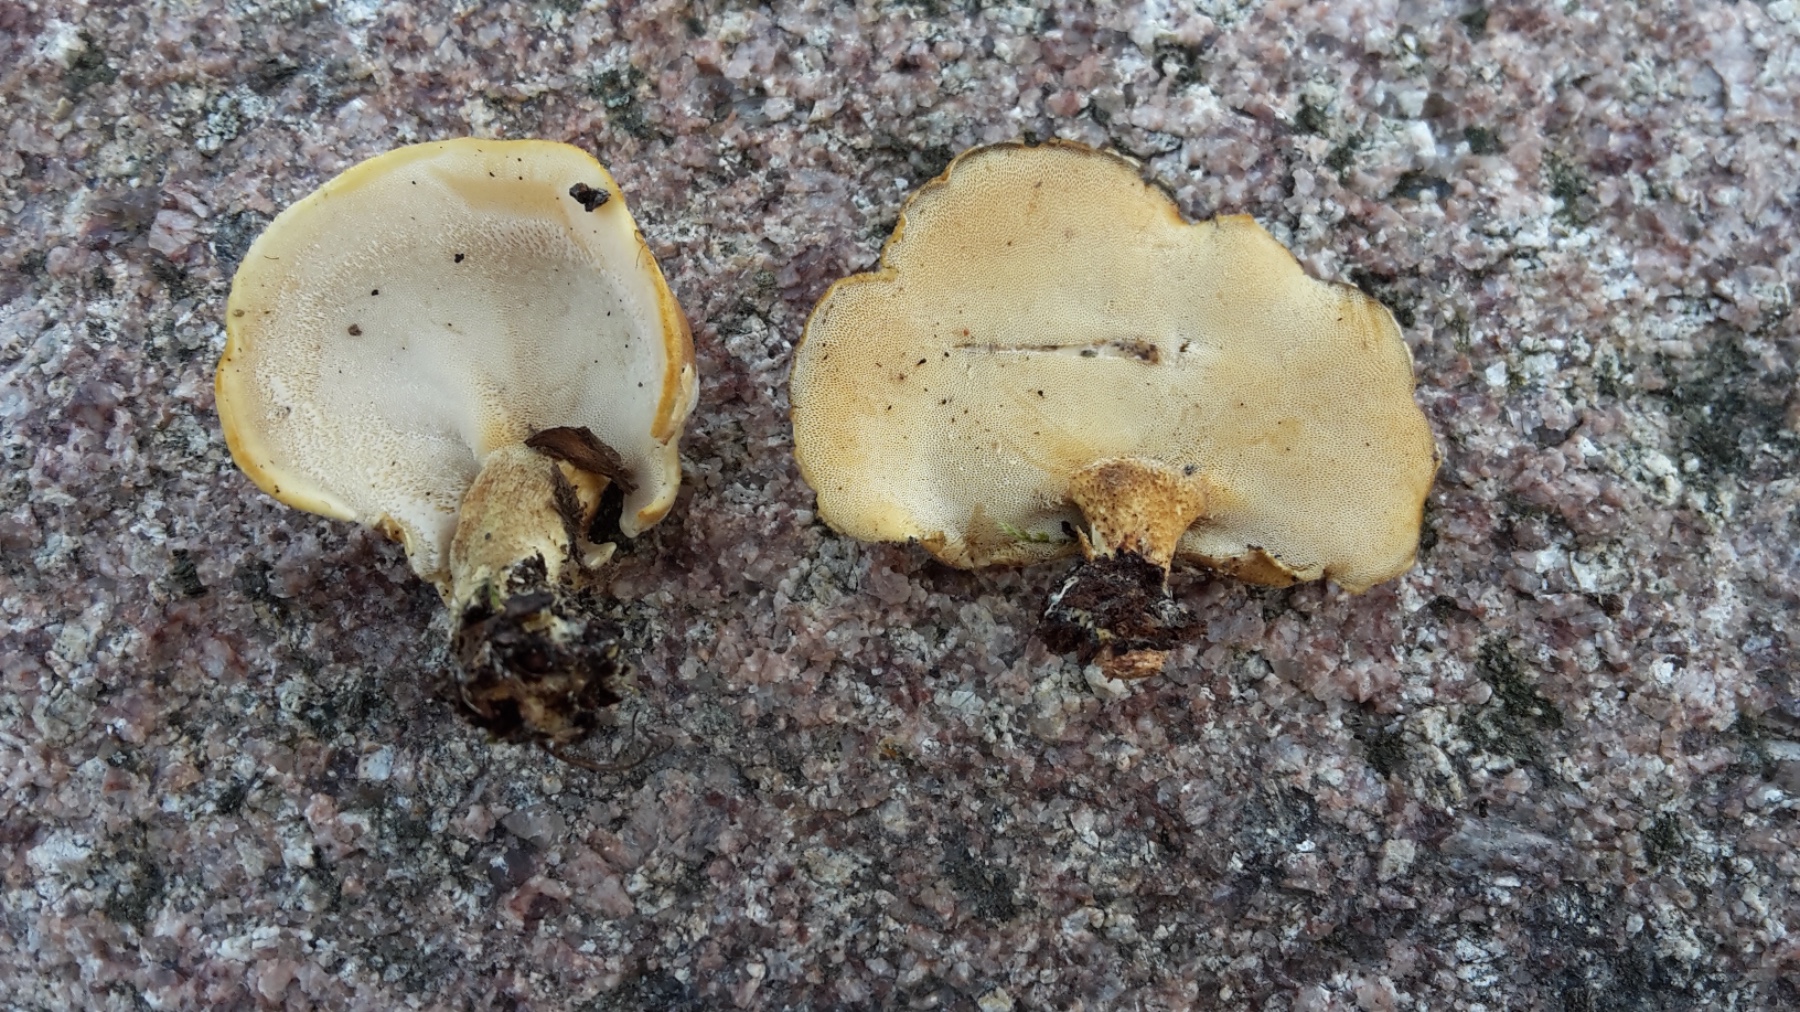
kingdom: Fungi
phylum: Basidiomycota
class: Agaricomycetes
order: Polyporales
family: Polyporaceae
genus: Lentinus
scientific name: Lentinus substrictus
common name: forårs-stilkporesvamp
